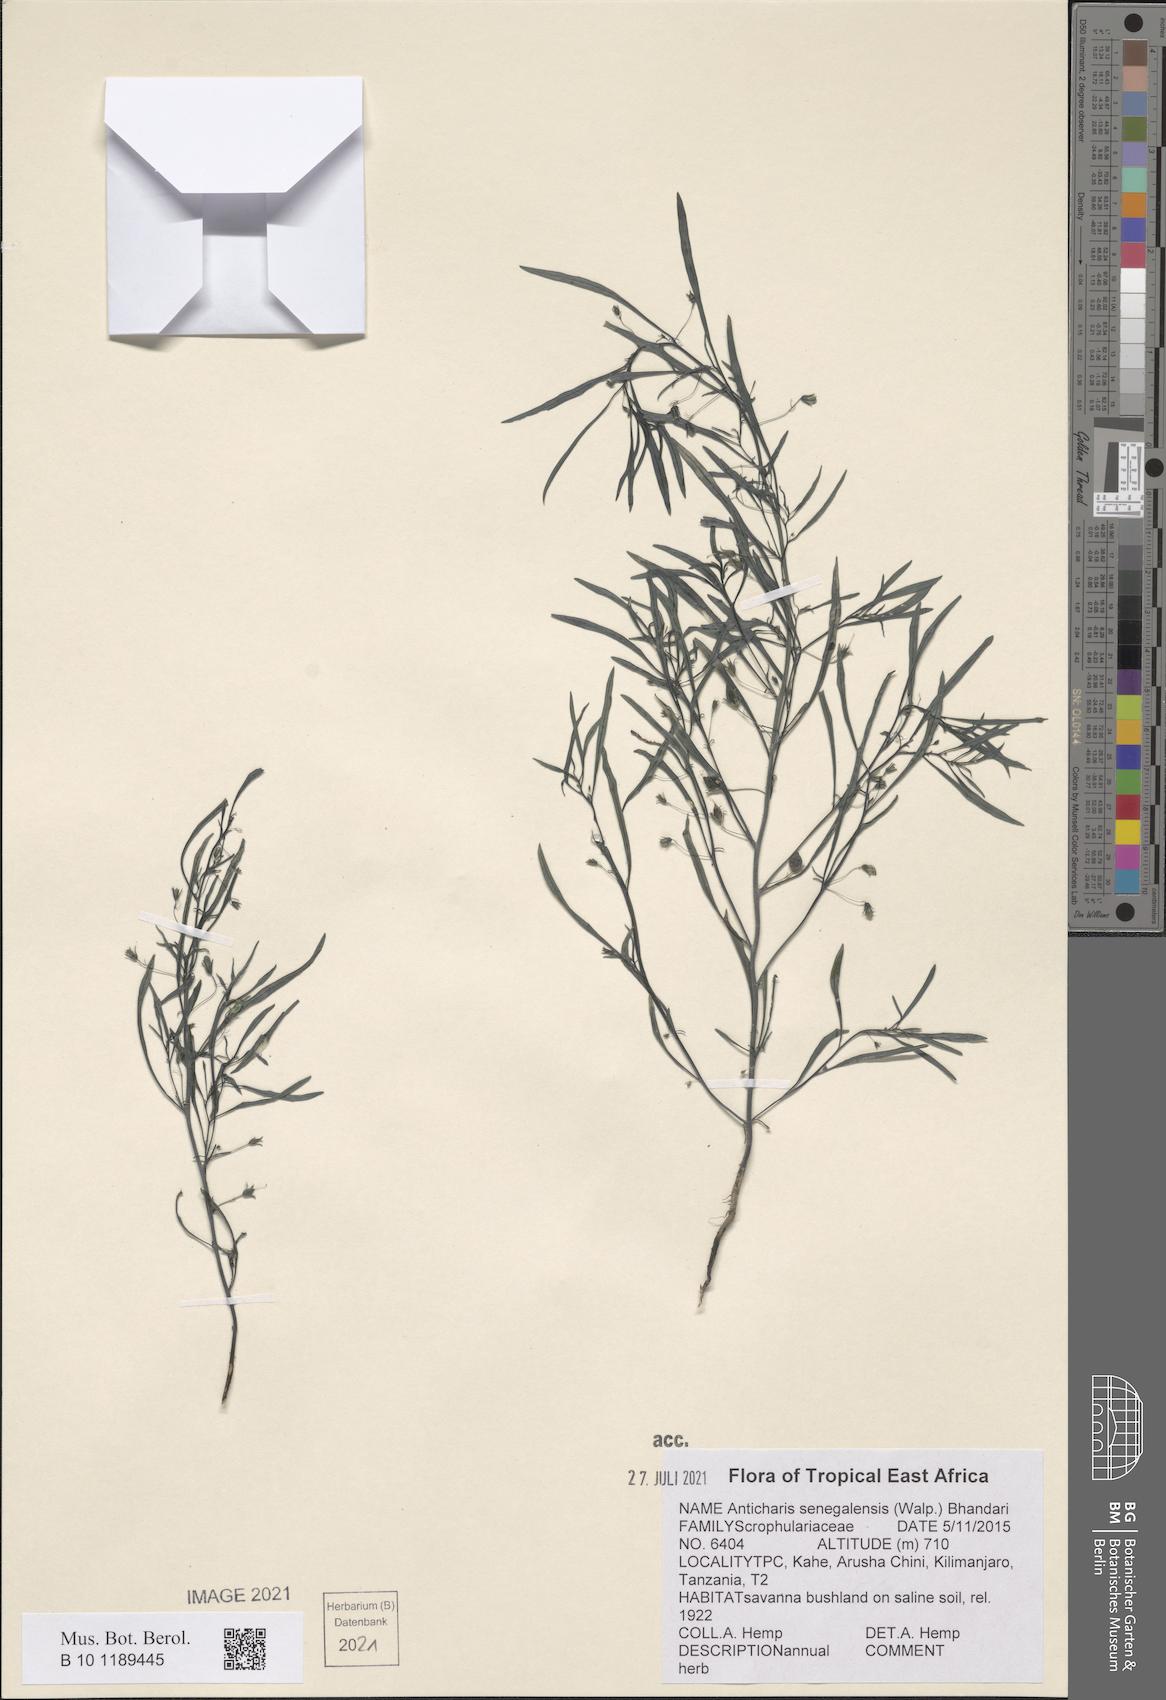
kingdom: Plantae
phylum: Tracheophyta
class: Magnoliopsida
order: Lamiales
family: Scrophulariaceae
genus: Anticharis
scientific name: Anticharis senegalensis
